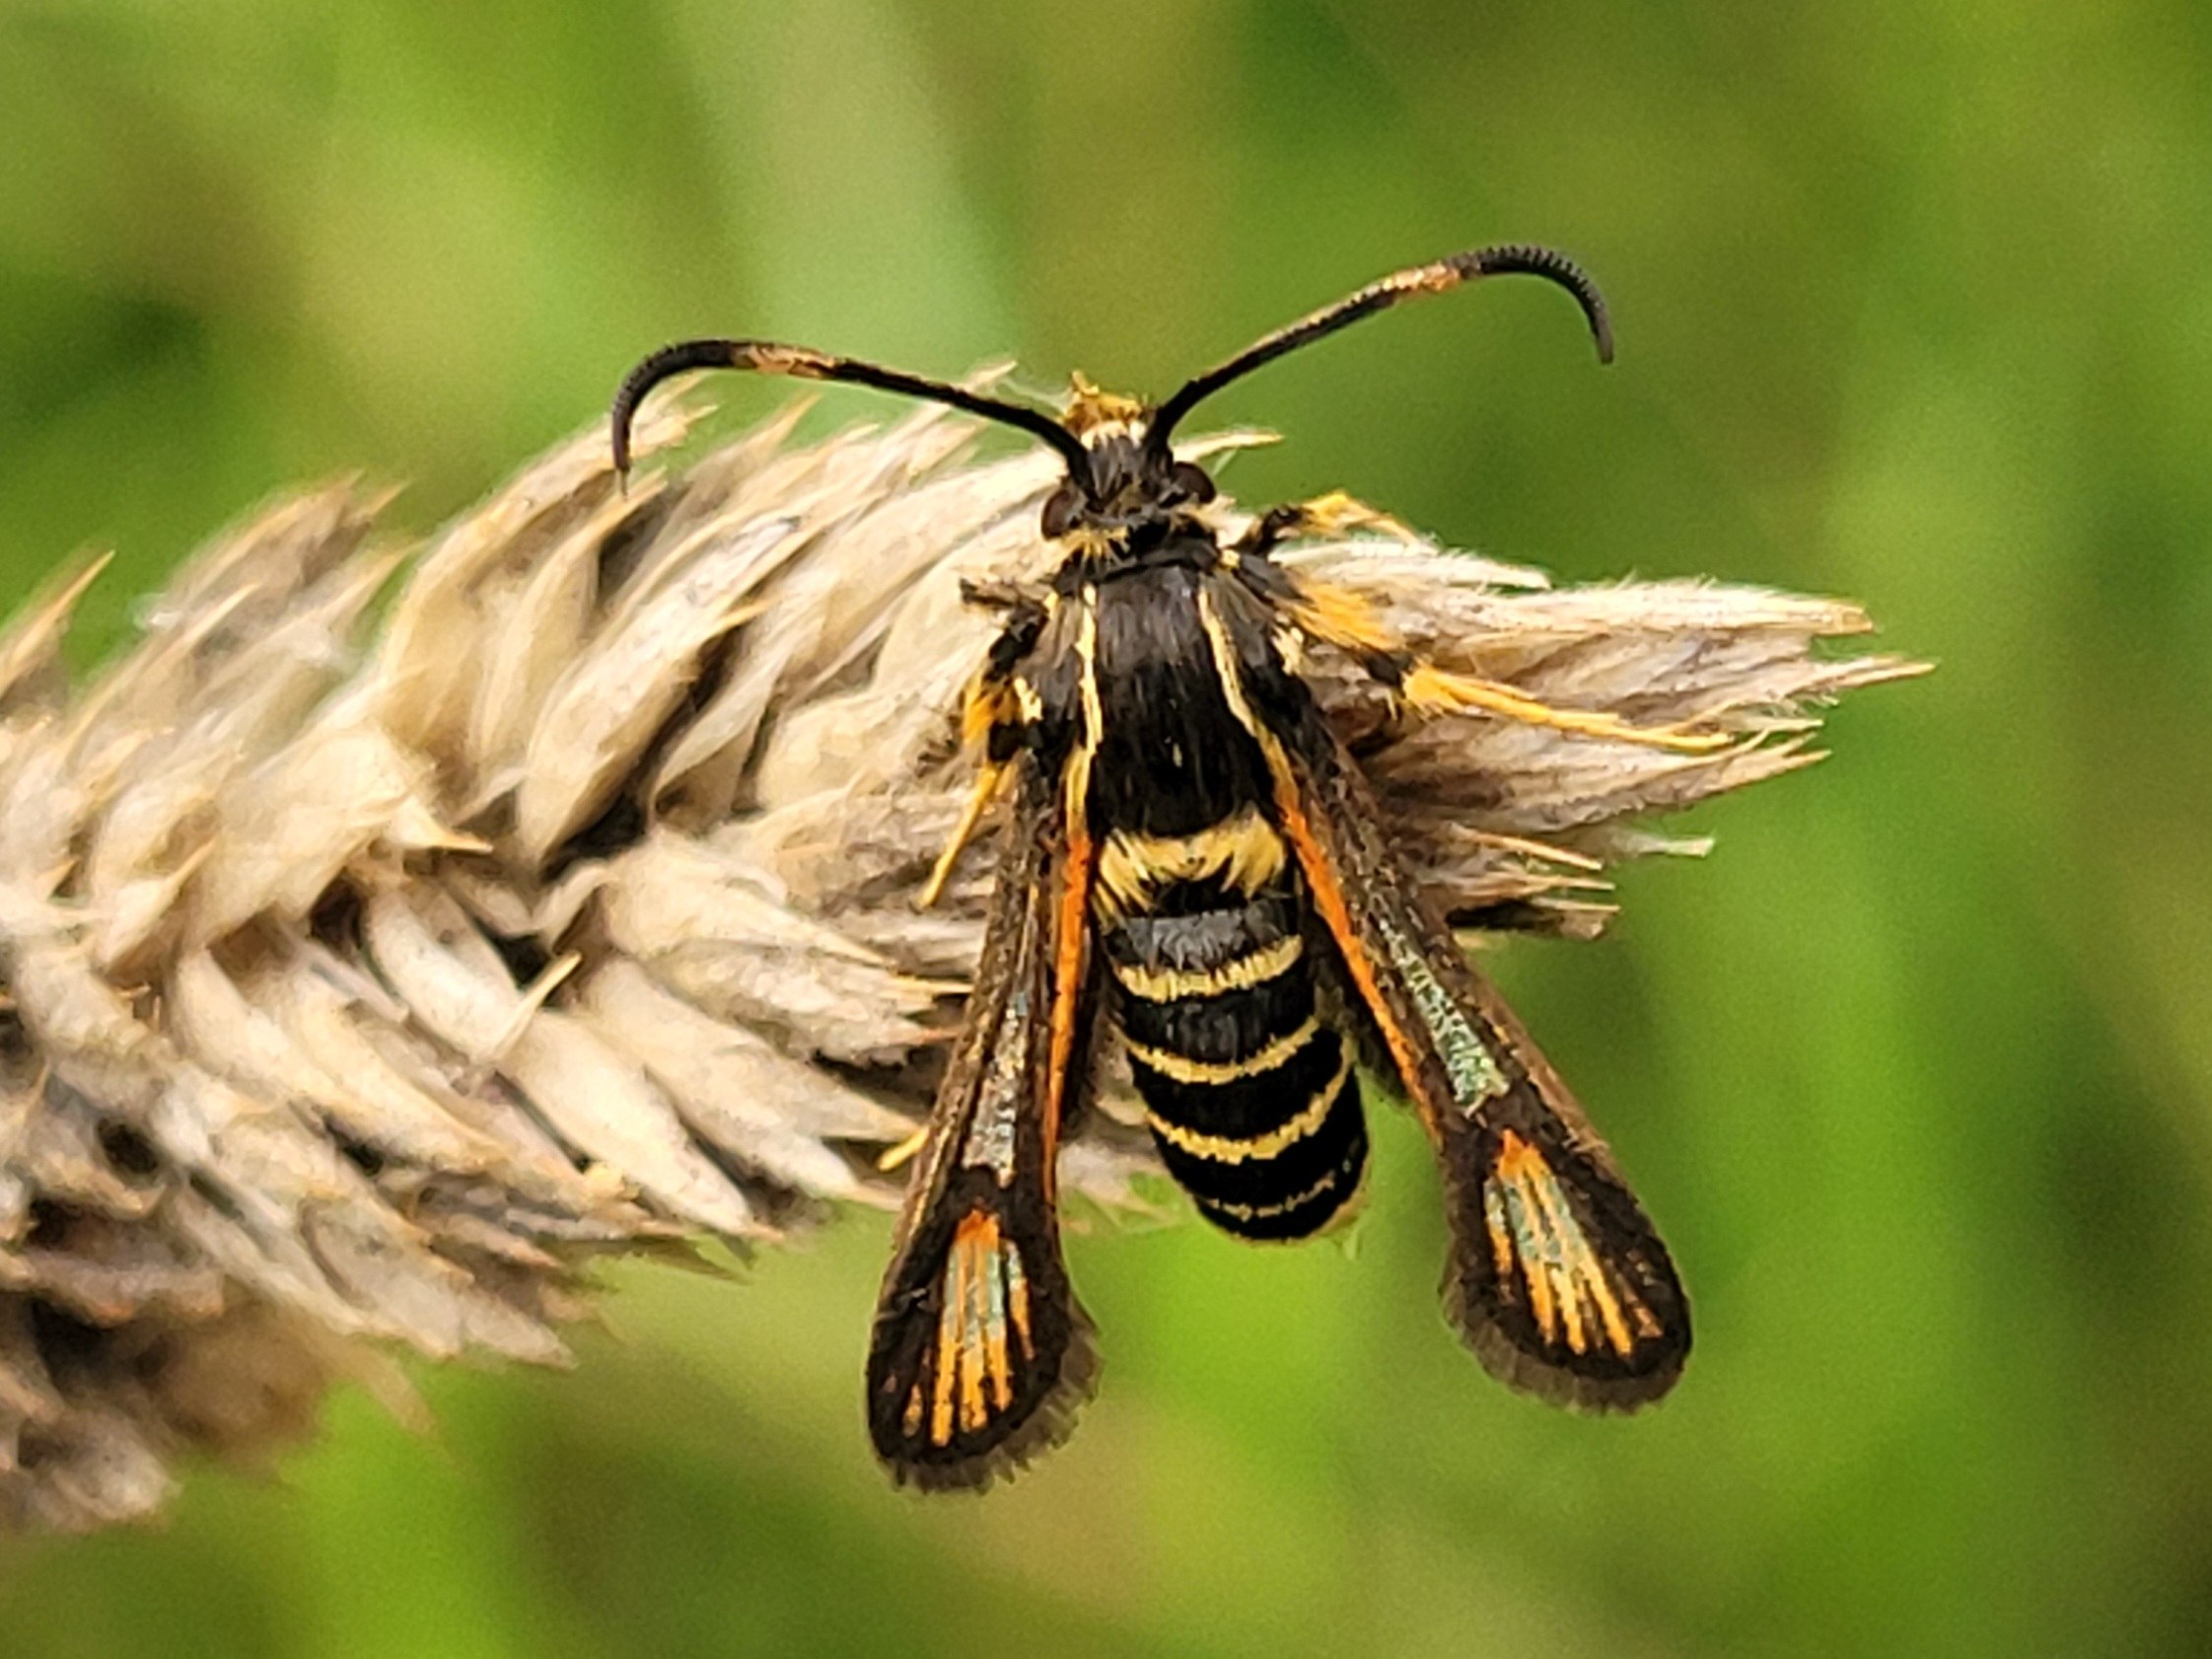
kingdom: Animalia
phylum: Arthropoda
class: Insecta
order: Lepidoptera
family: Sesiidae
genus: Bembecia
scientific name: Bembecia ichneumoniformis
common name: Snyltehveps-glassværmer
